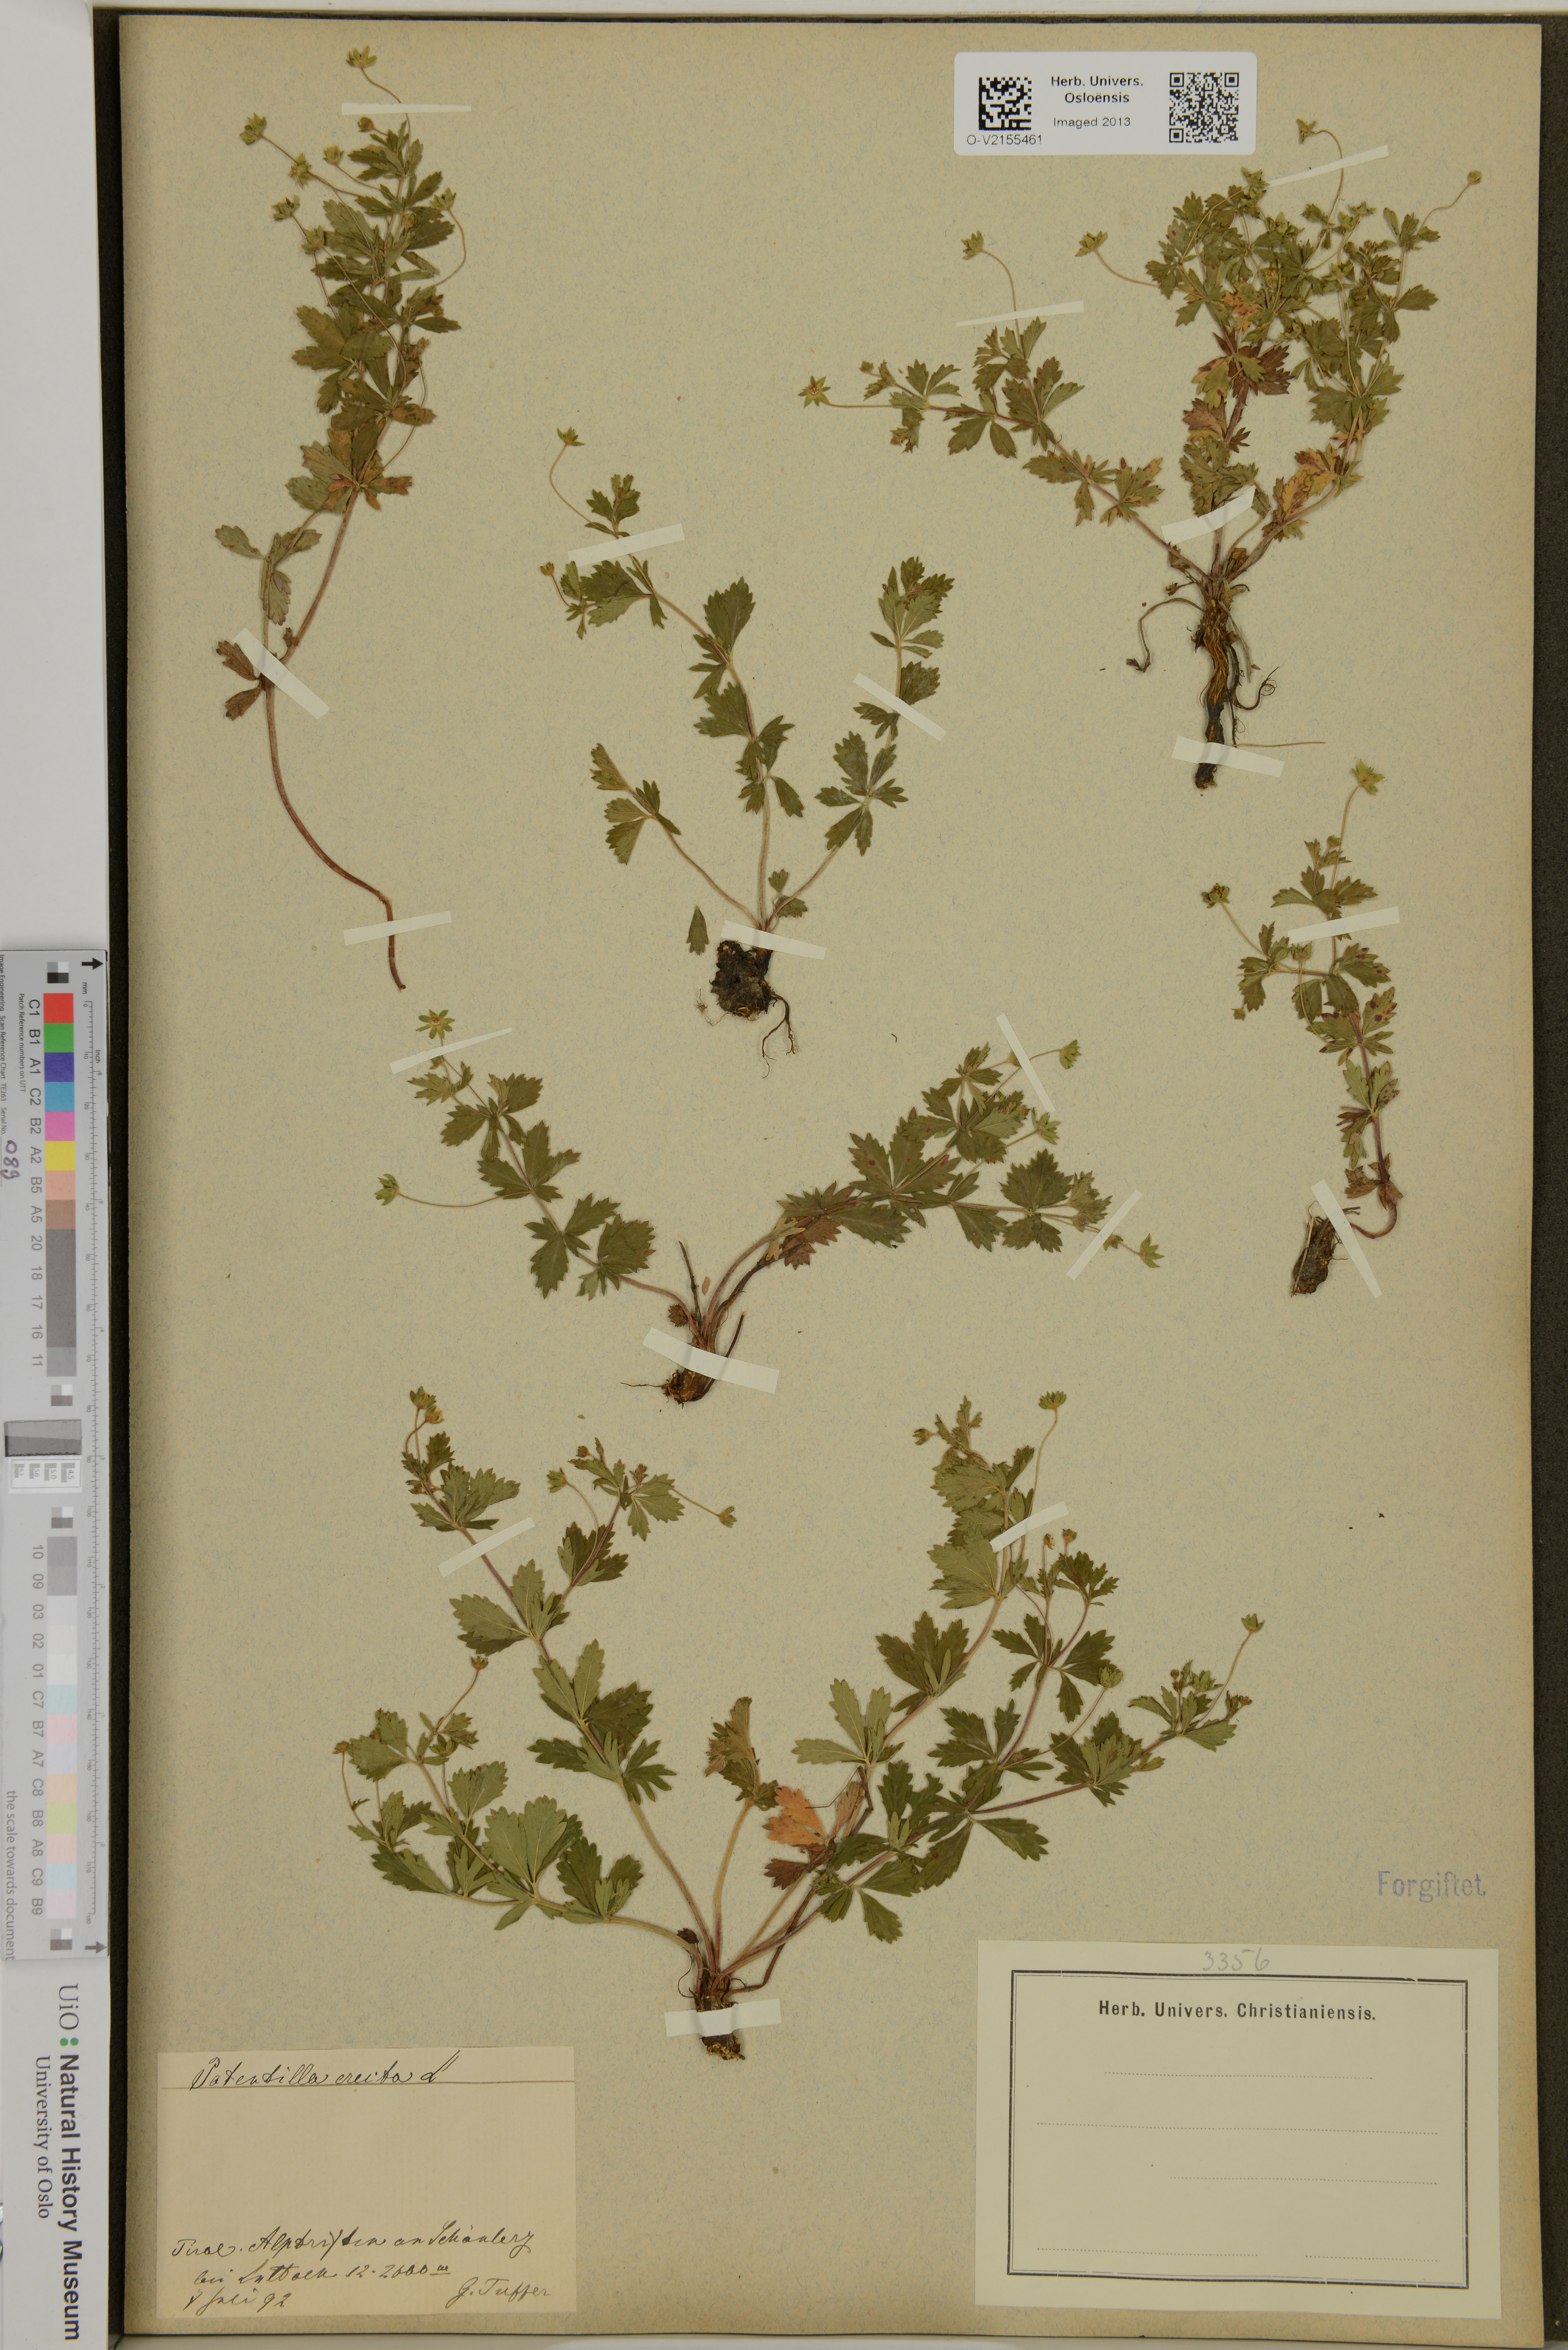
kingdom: Plantae
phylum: Tracheophyta
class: Magnoliopsida
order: Rosales
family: Rosaceae
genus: Potentilla
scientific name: Potentilla erecta
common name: Tormentil
